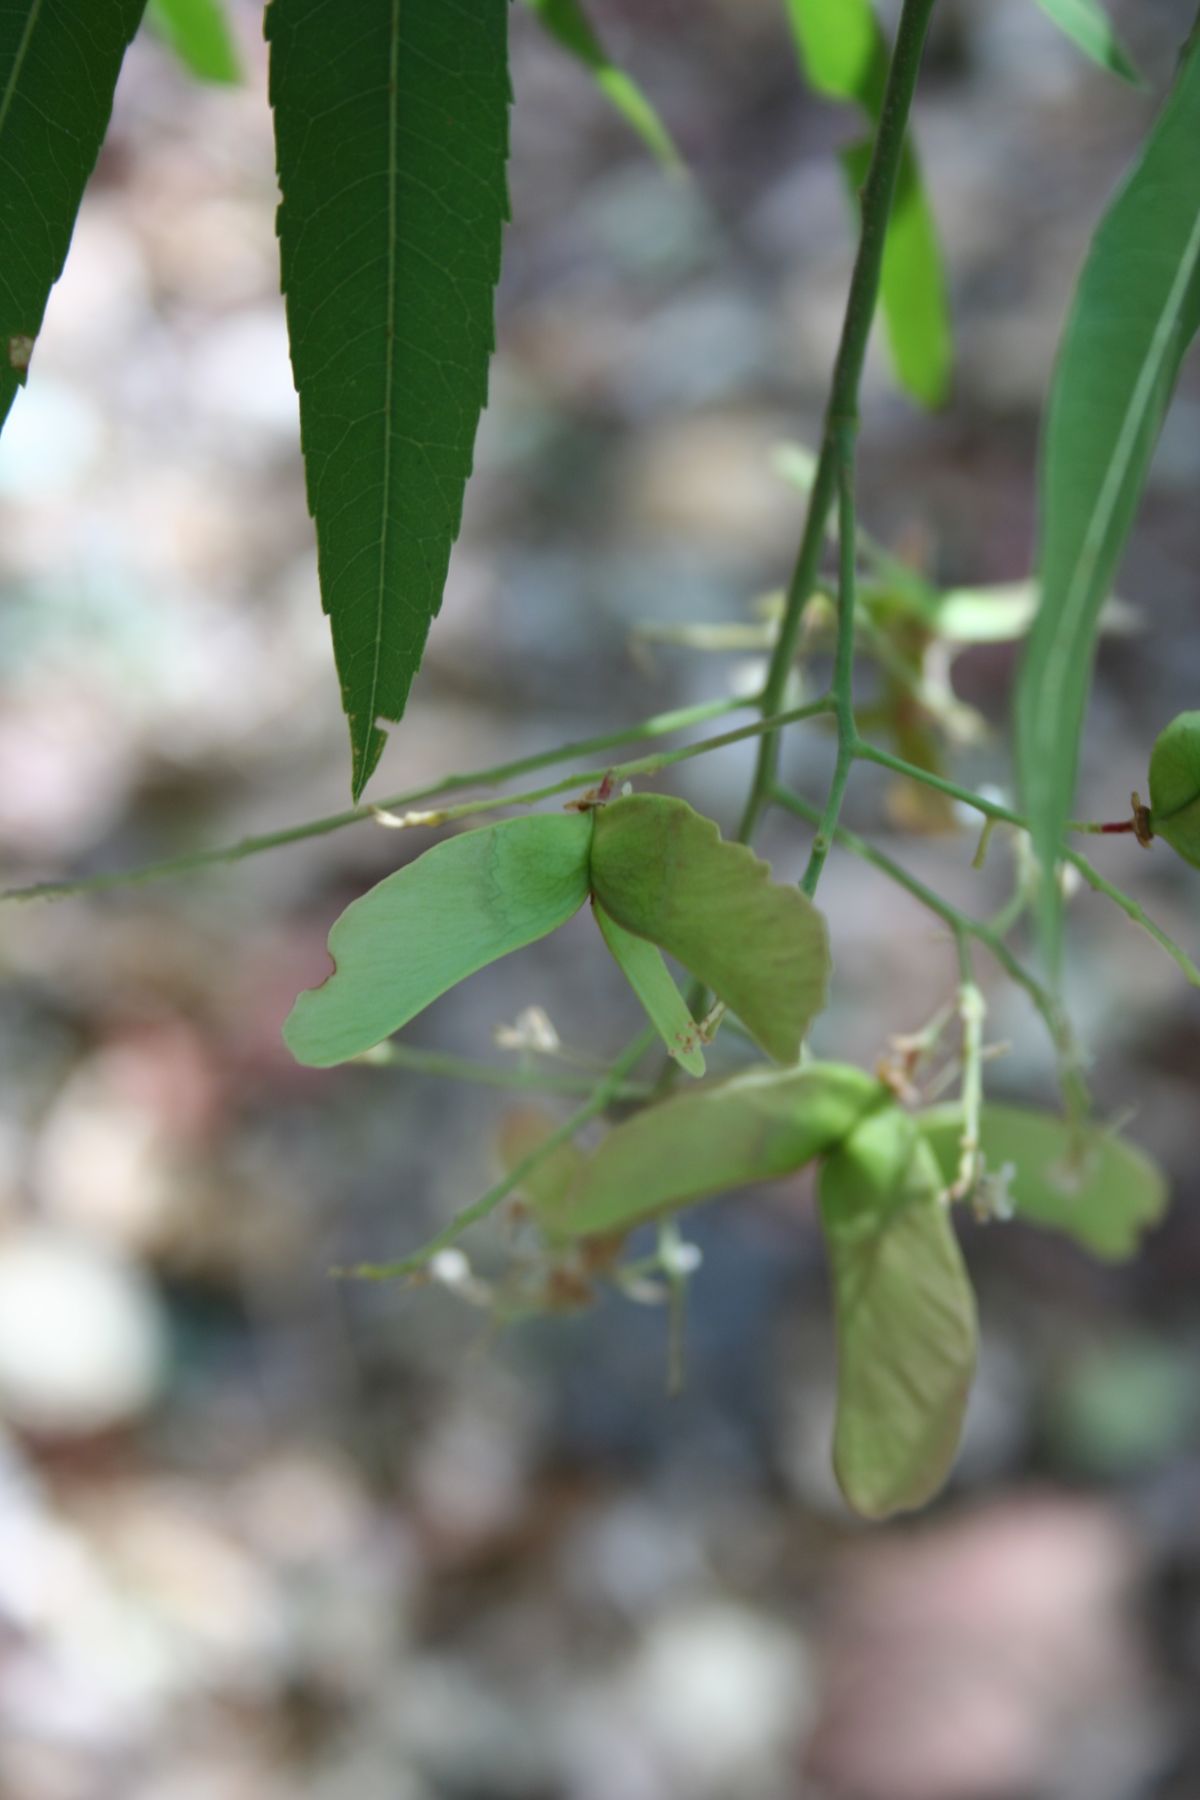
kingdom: Plantae
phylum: Tracheophyta
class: Magnoliopsida
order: Sapindales
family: Sapindaceae
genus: Thouinidium
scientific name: Thouinidium decandrum
